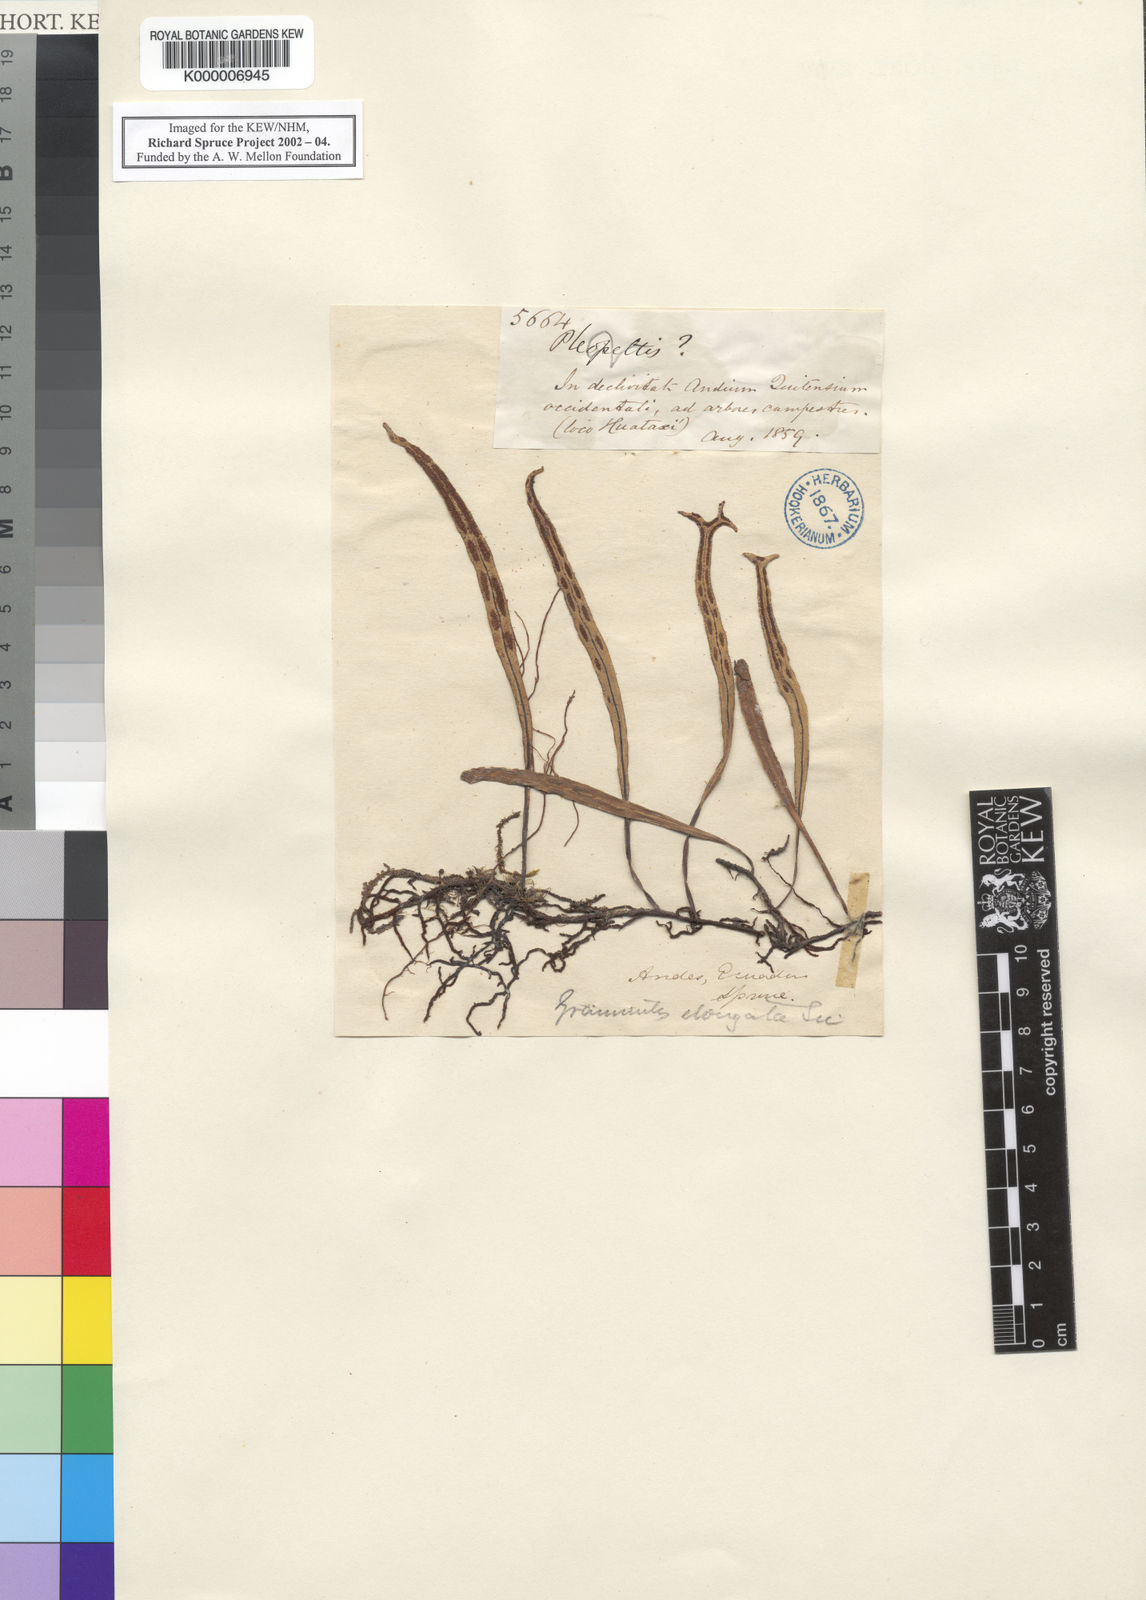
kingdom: Plantae
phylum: Tracheophyta
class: Polypodiopsida
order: Polypodiales
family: Polypodiaceae
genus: Pleopeltis
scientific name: Pleopeltis
